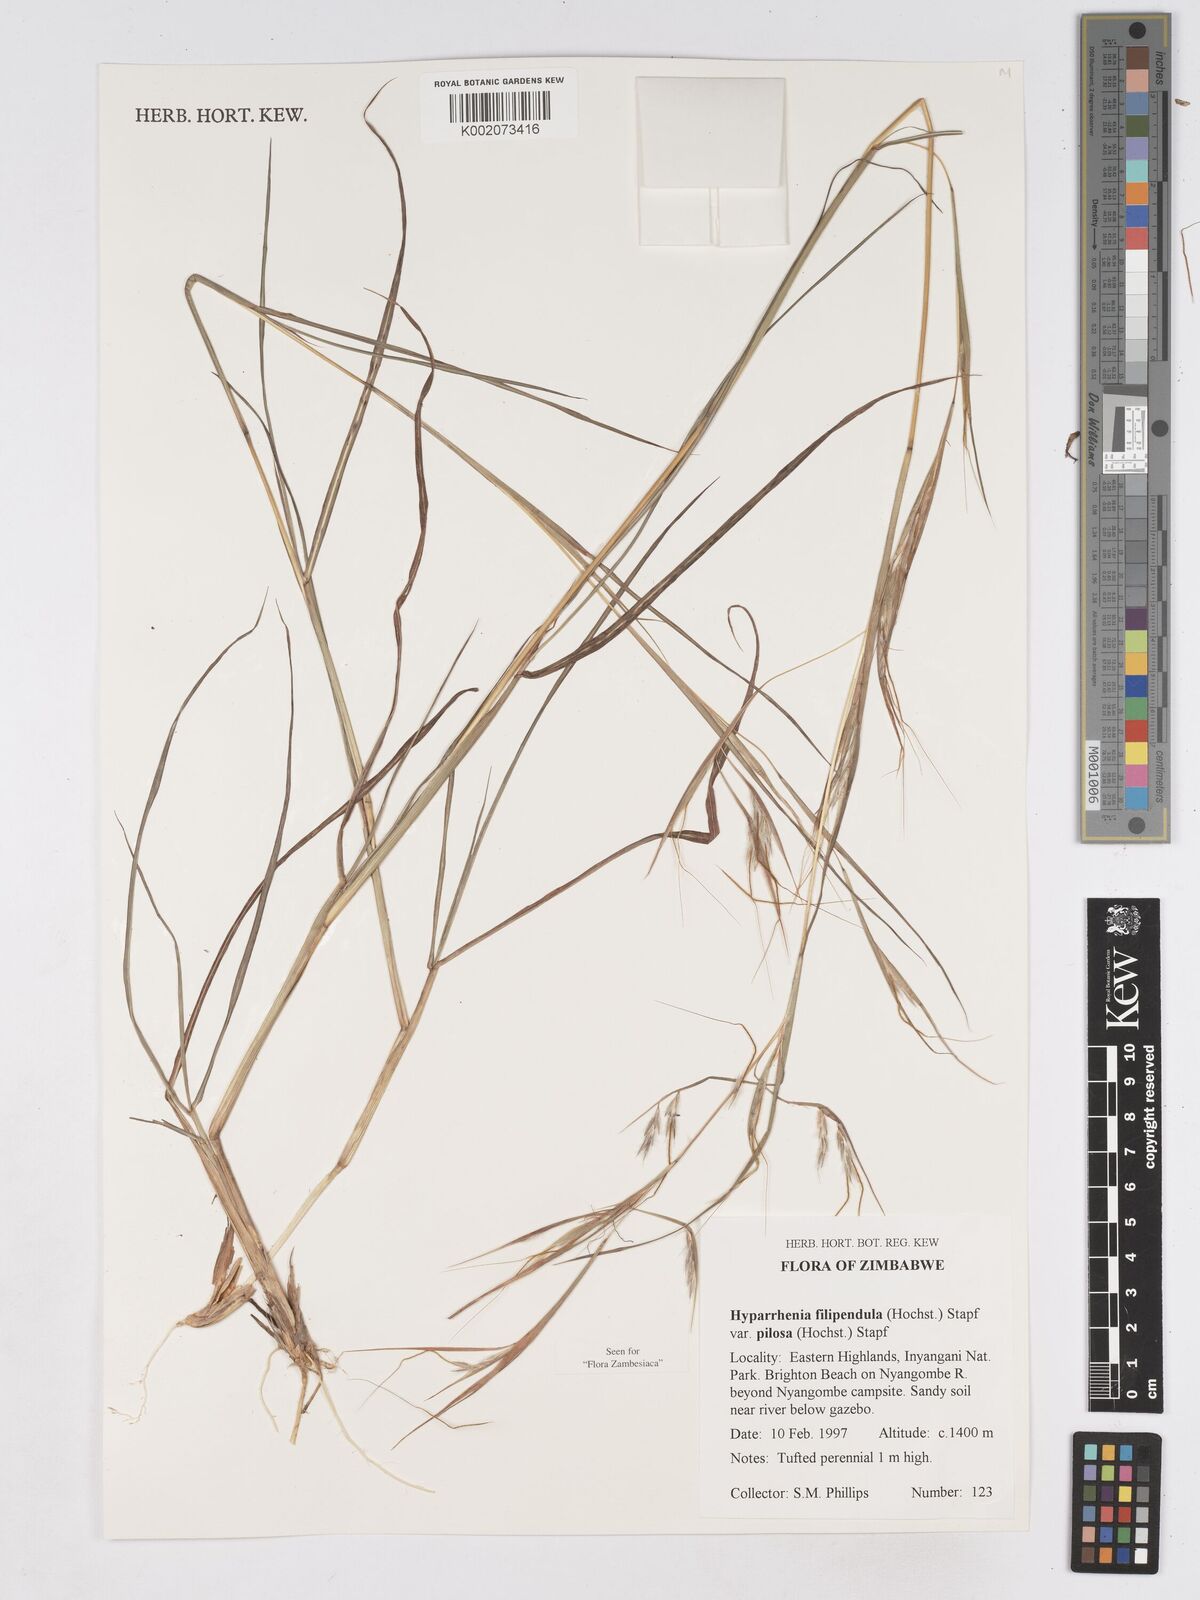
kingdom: Plantae
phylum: Tracheophyta
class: Liliopsida
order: Poales
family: Poaceae
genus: Hyparrhenia
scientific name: Hyparrhenia filipendula
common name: Tambookie grass
